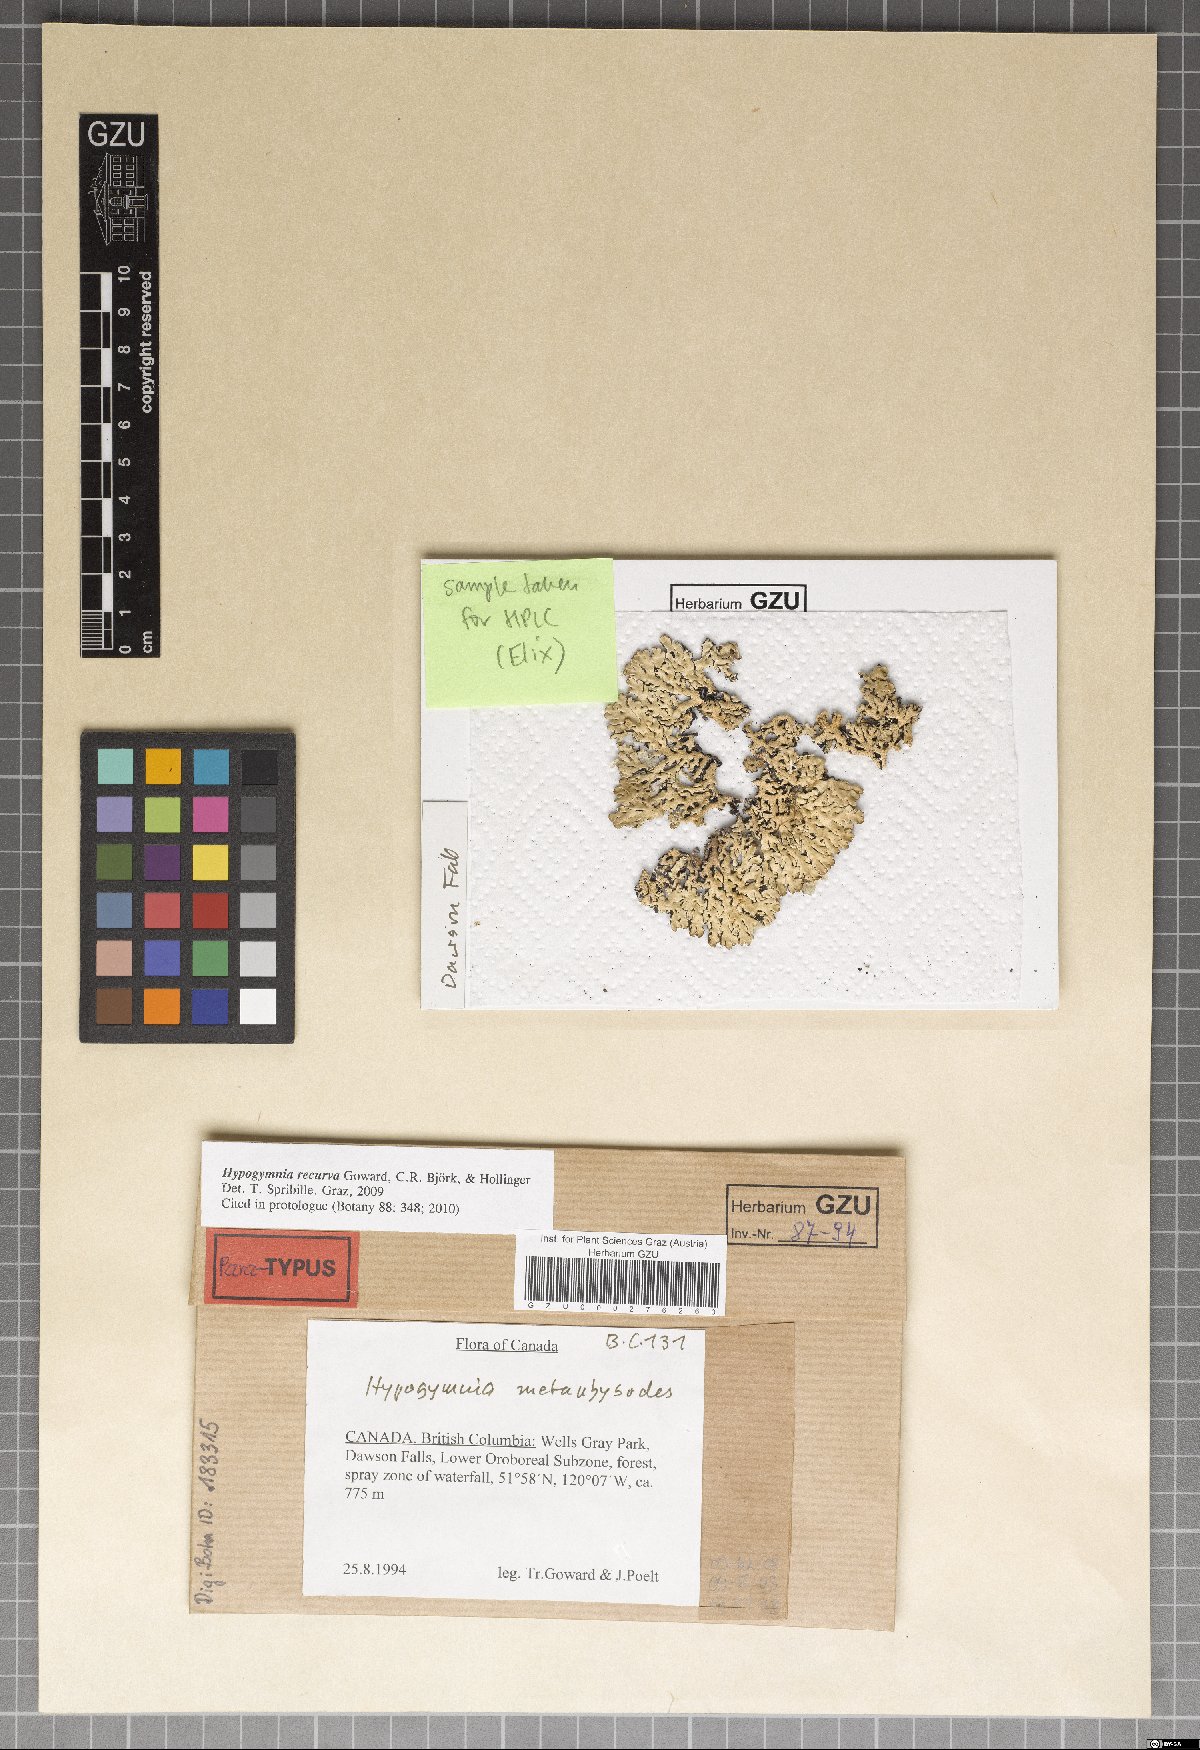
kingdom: Fungi
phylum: Ascomycota
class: Lecanoromycetes
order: Lecanorales
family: Parmeliaceae
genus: Hypogymnia
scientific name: Hypogymnia recurva
